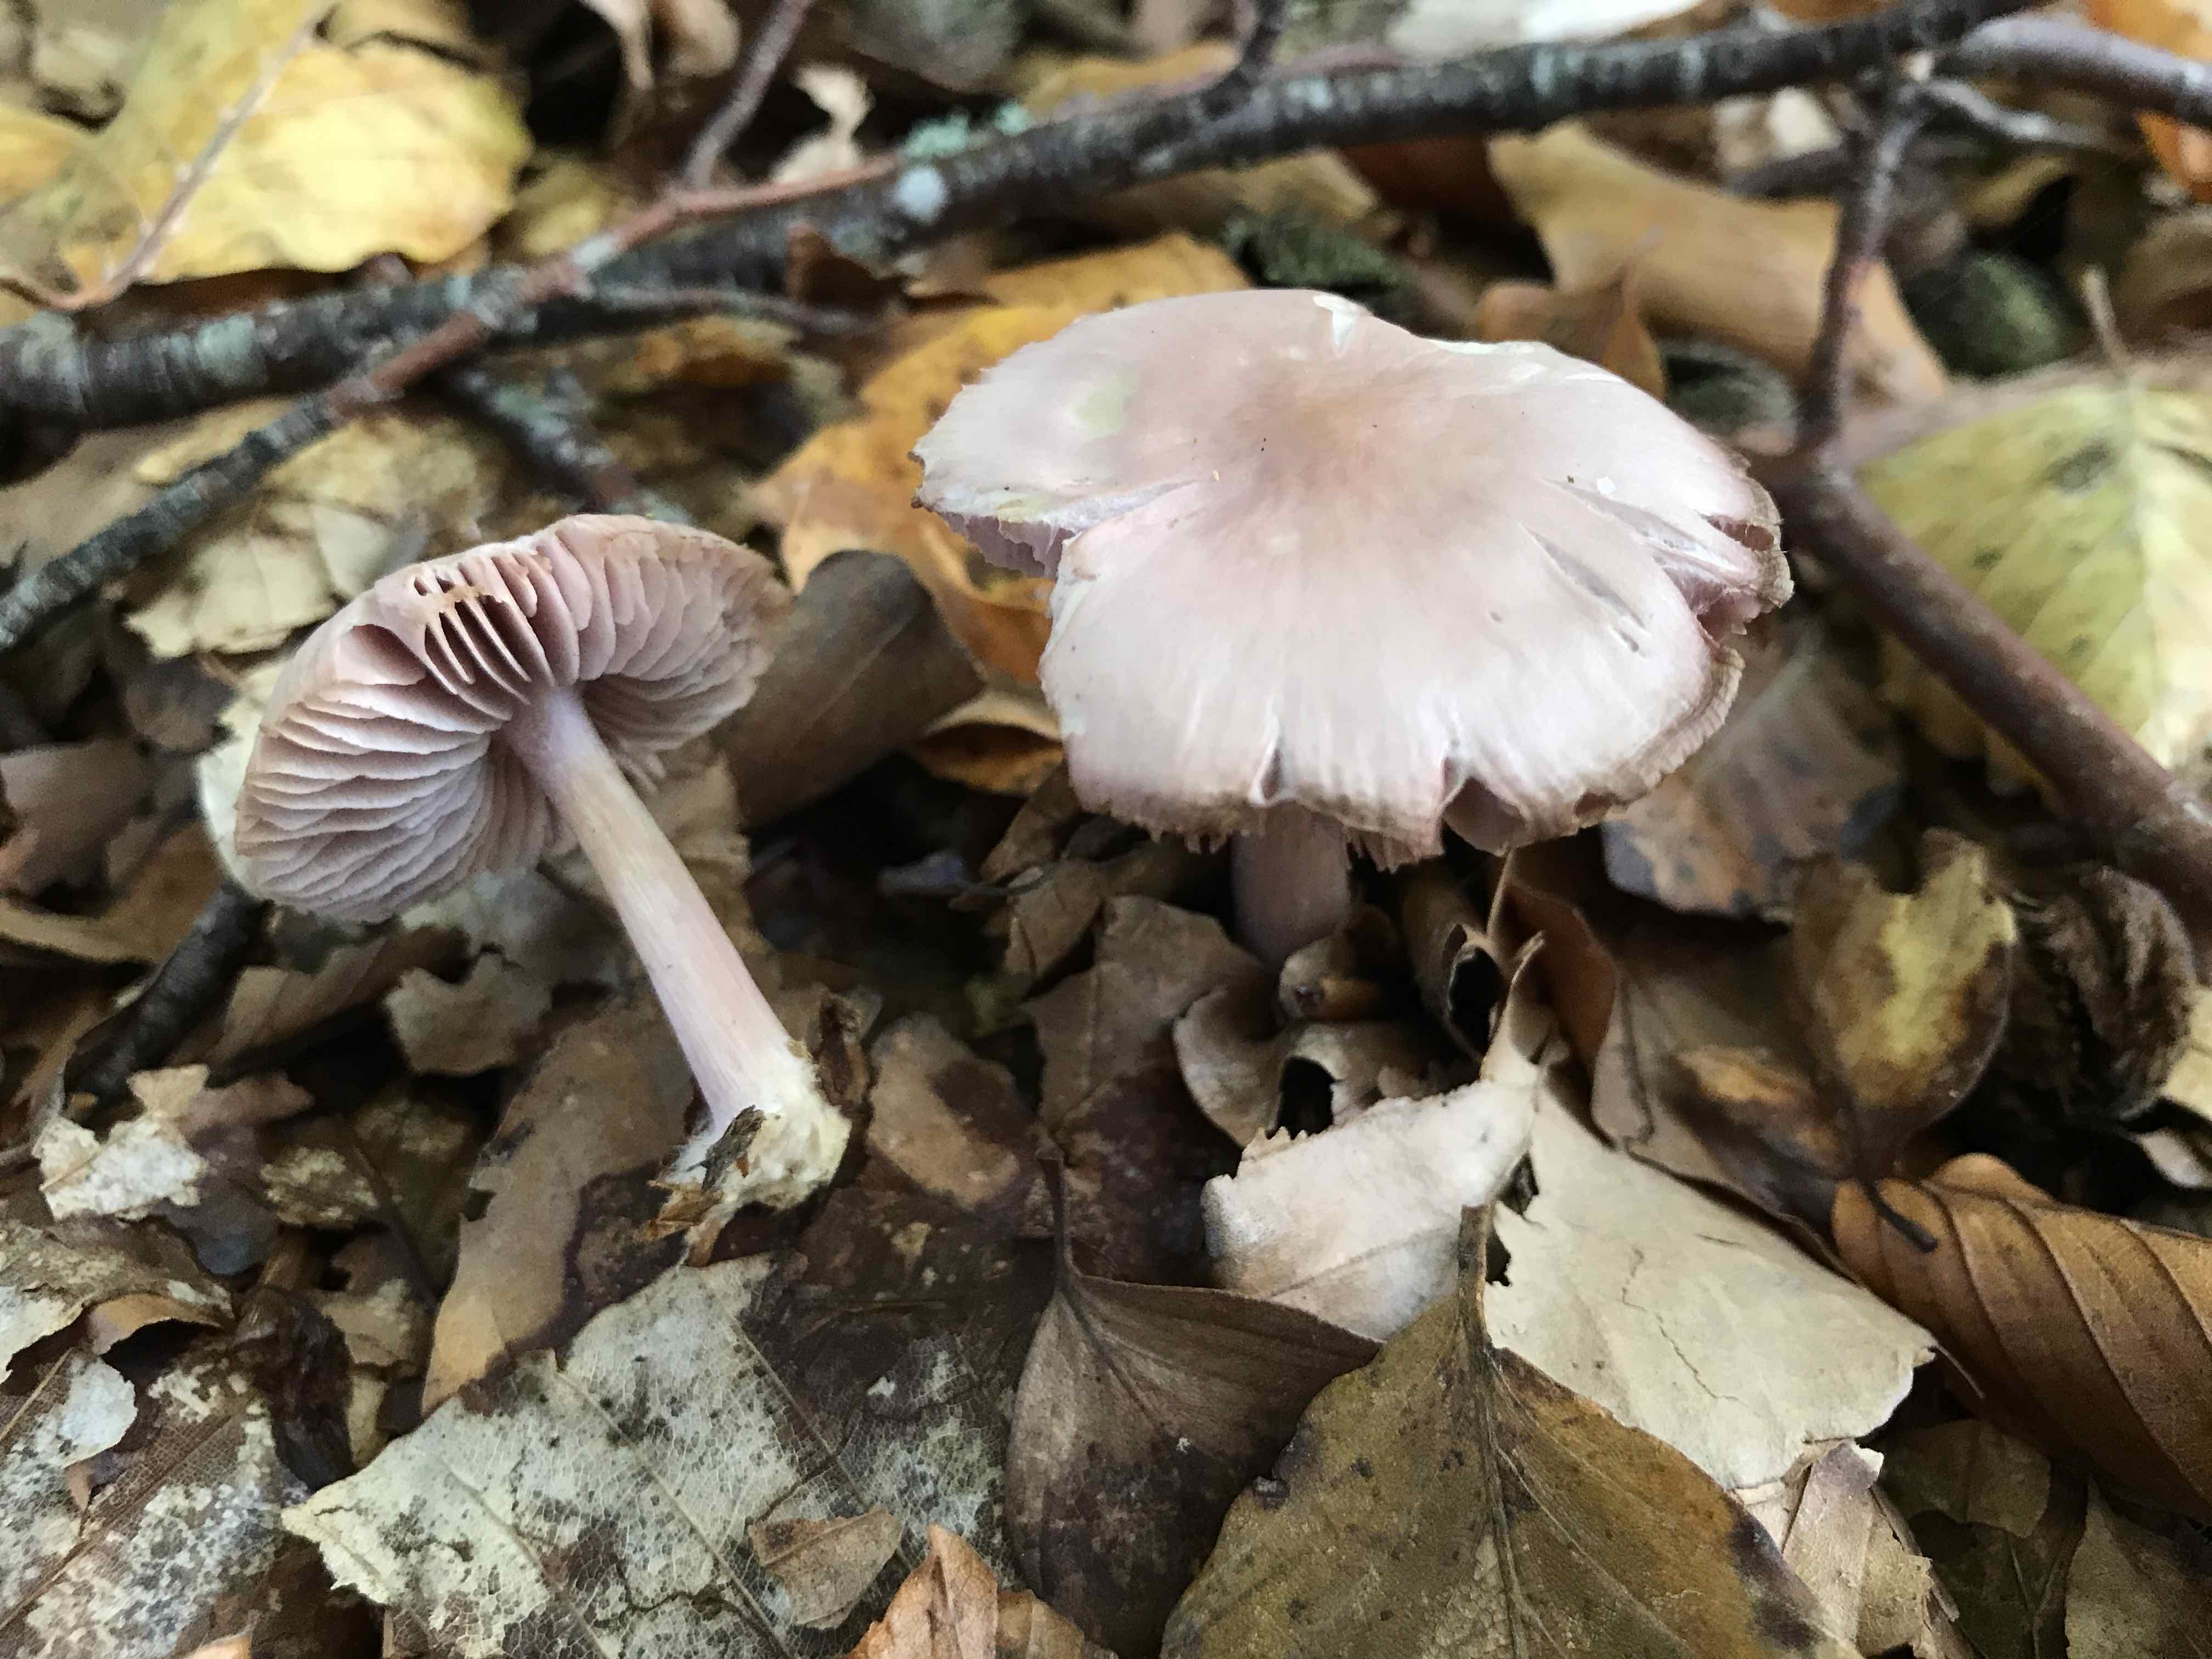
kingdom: Fungi
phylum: Basidiomycota
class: Agaricomycetes
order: Agaricales
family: Mycenaceae
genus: Mycena
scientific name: Mycena rosea
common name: rosa huesvamp
